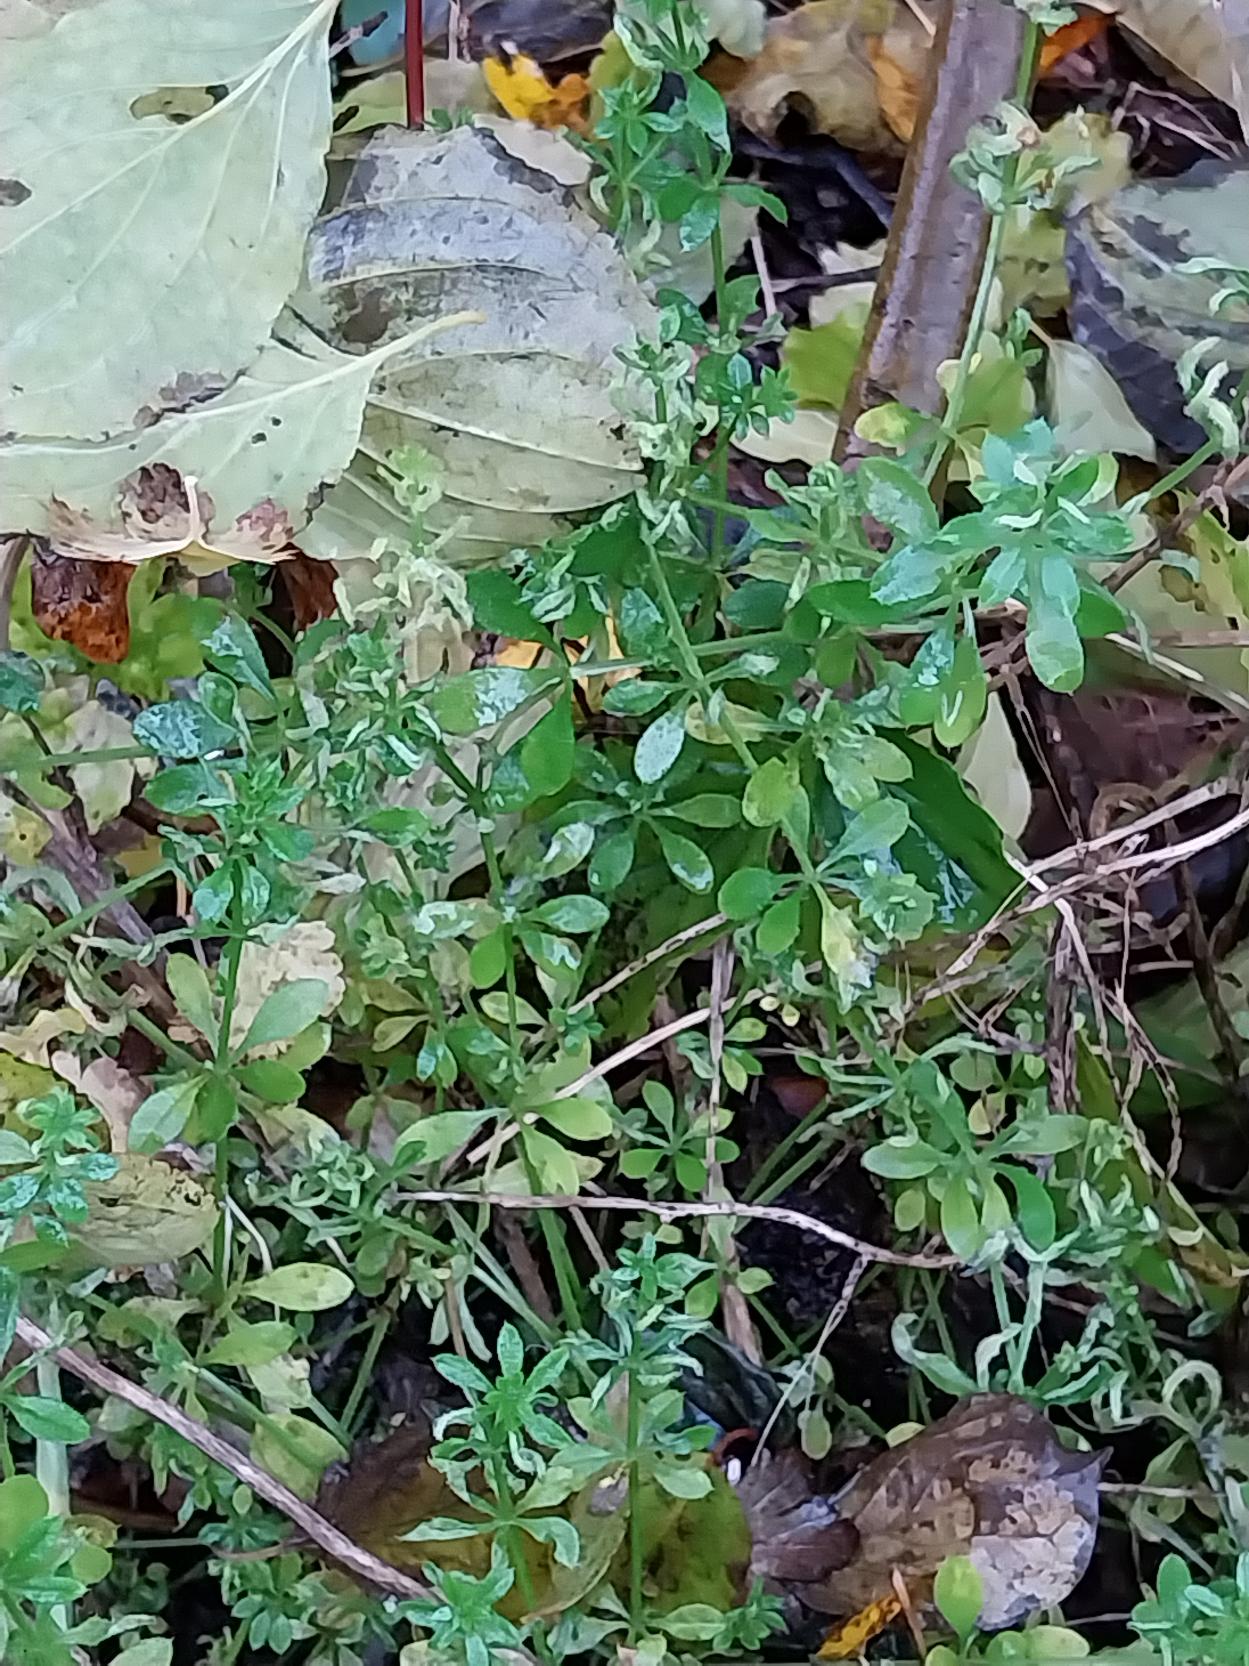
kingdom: Plantae
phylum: Tracheophyta
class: Magnoliopsida
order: Gentianales
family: Rubiaceae
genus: Galium
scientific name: Galium aparine
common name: Burre-snerre
